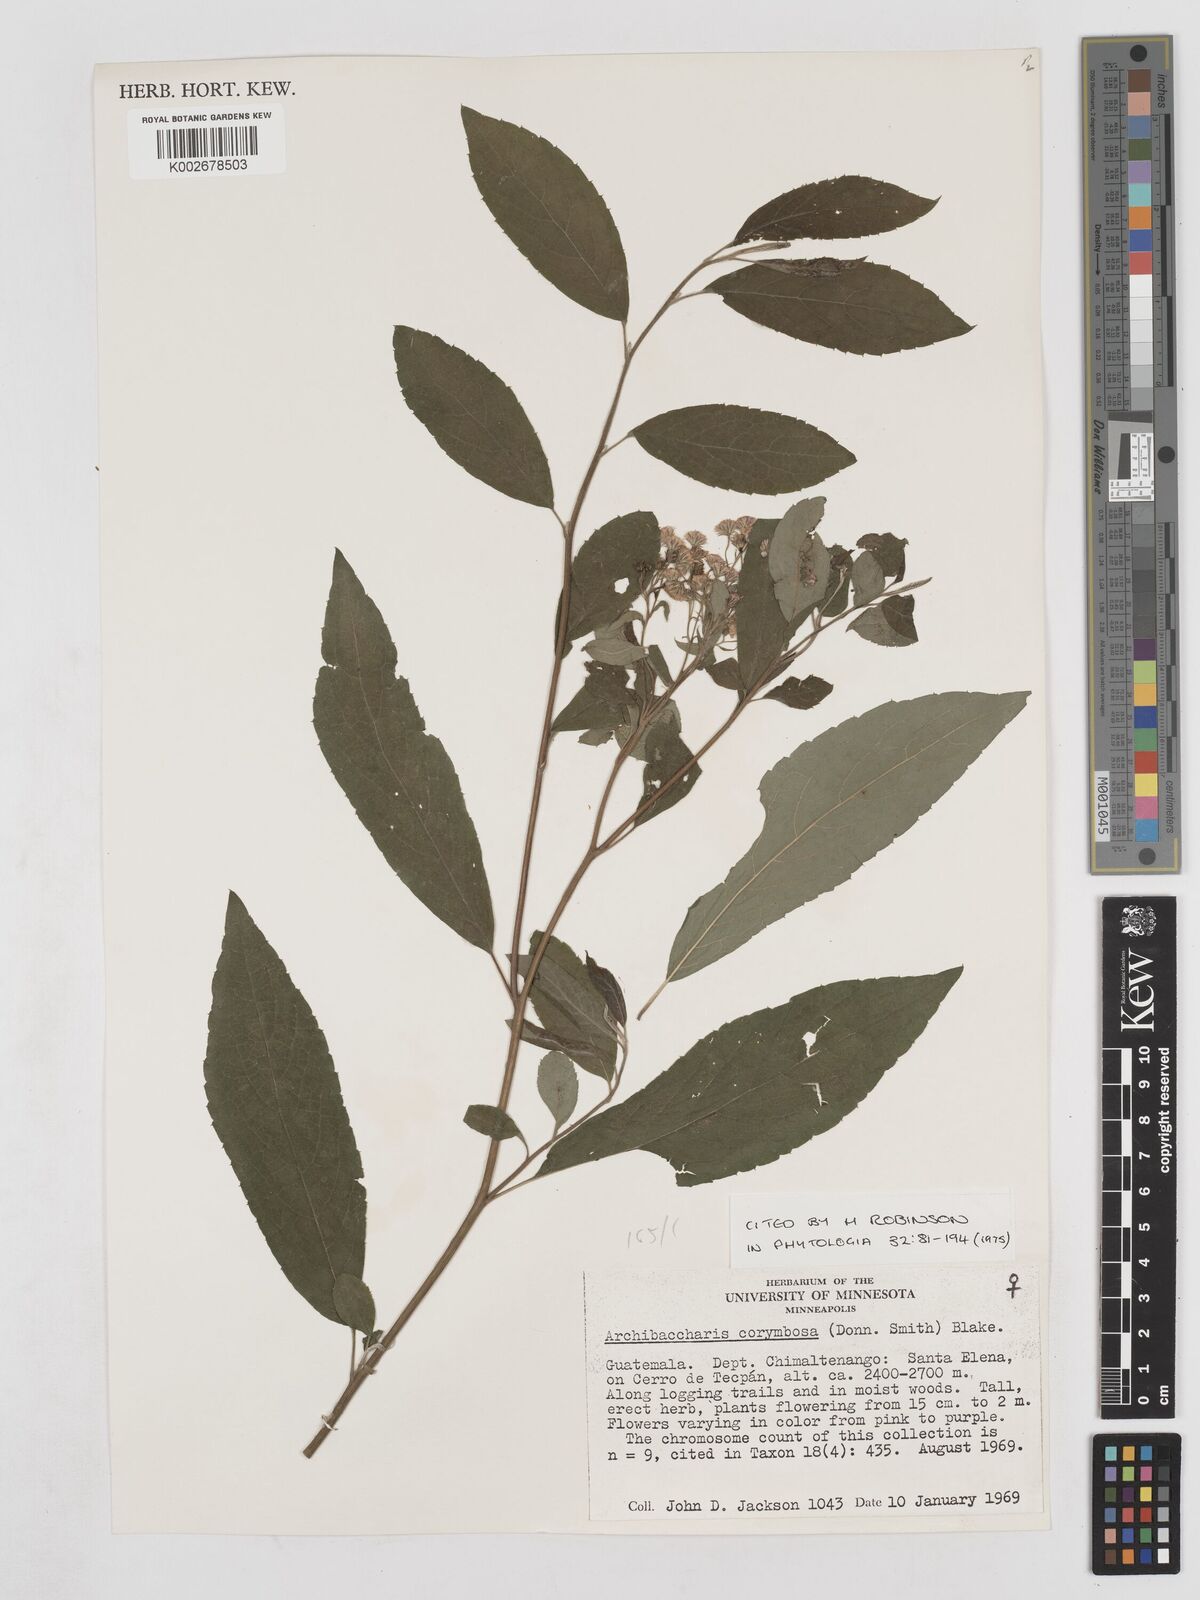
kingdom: Plantae
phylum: Tracheophyta
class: Magnoliopsida
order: Asterales
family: Asteraceae
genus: Archibaccharis
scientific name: Archibaccharis corymbosa
